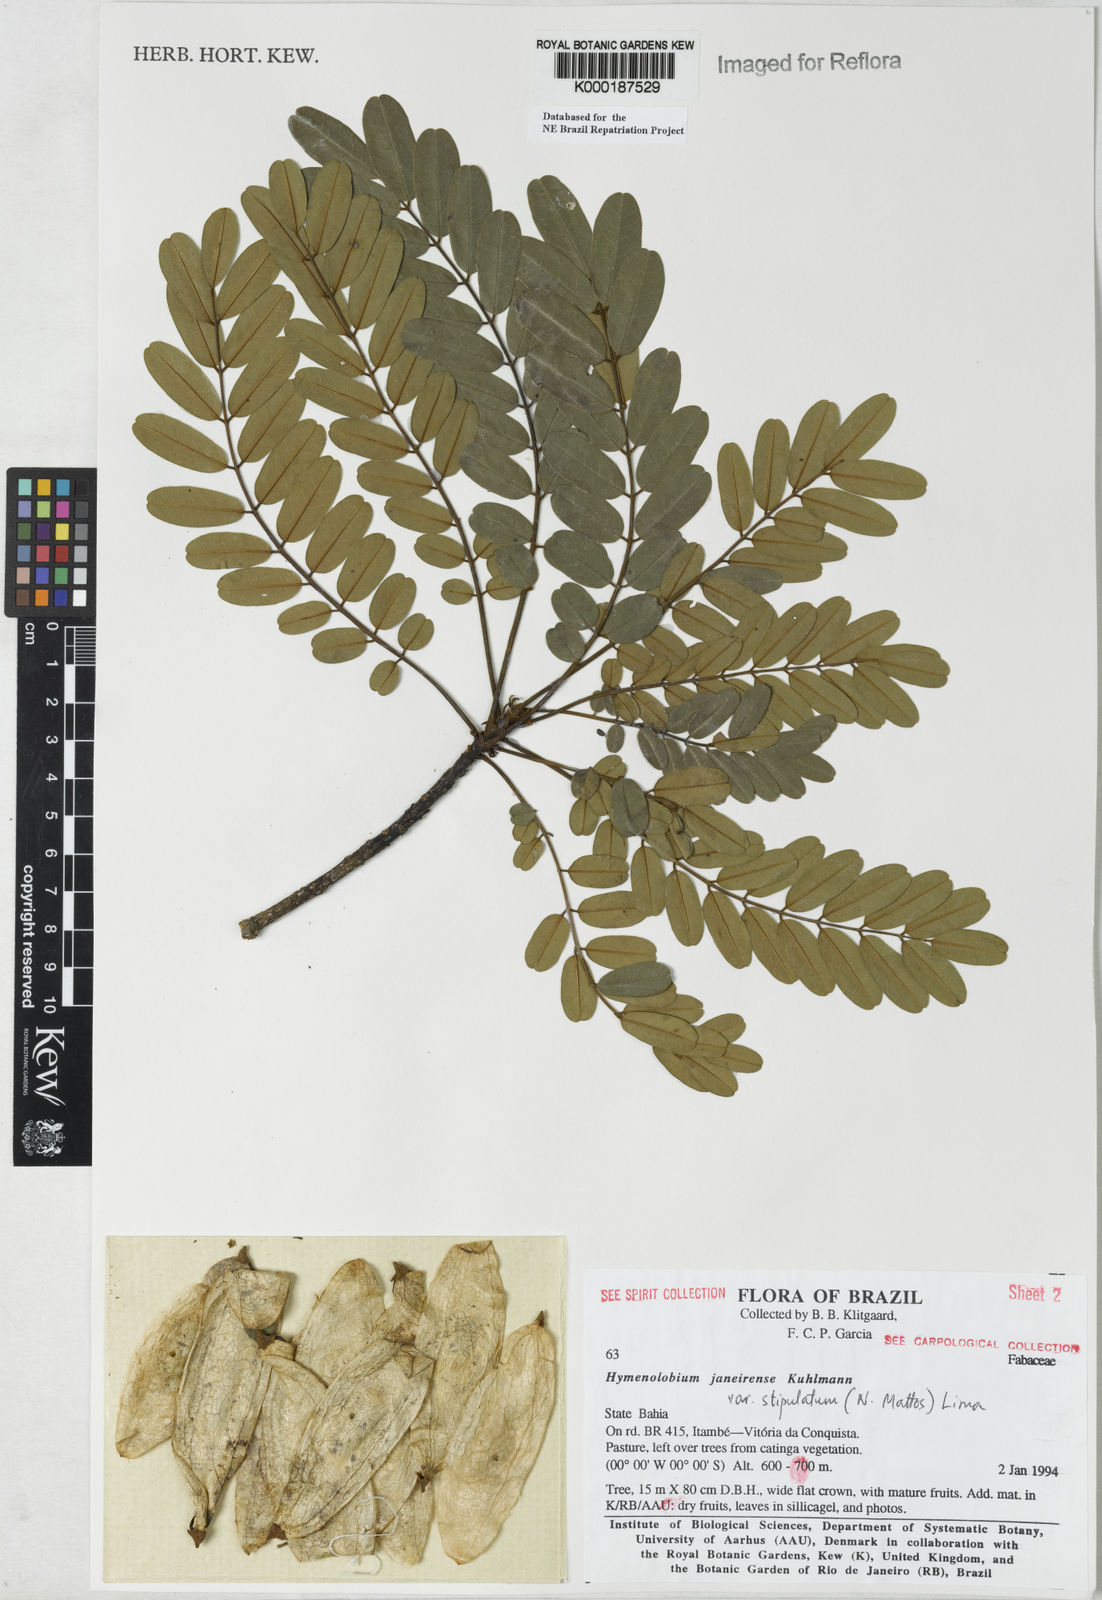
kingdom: Plantae
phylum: Tracheophyta
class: Magnoliopsida
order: Fabales
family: Fabaceae
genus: Hymenolobium
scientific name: Hymenolobium janeirense
